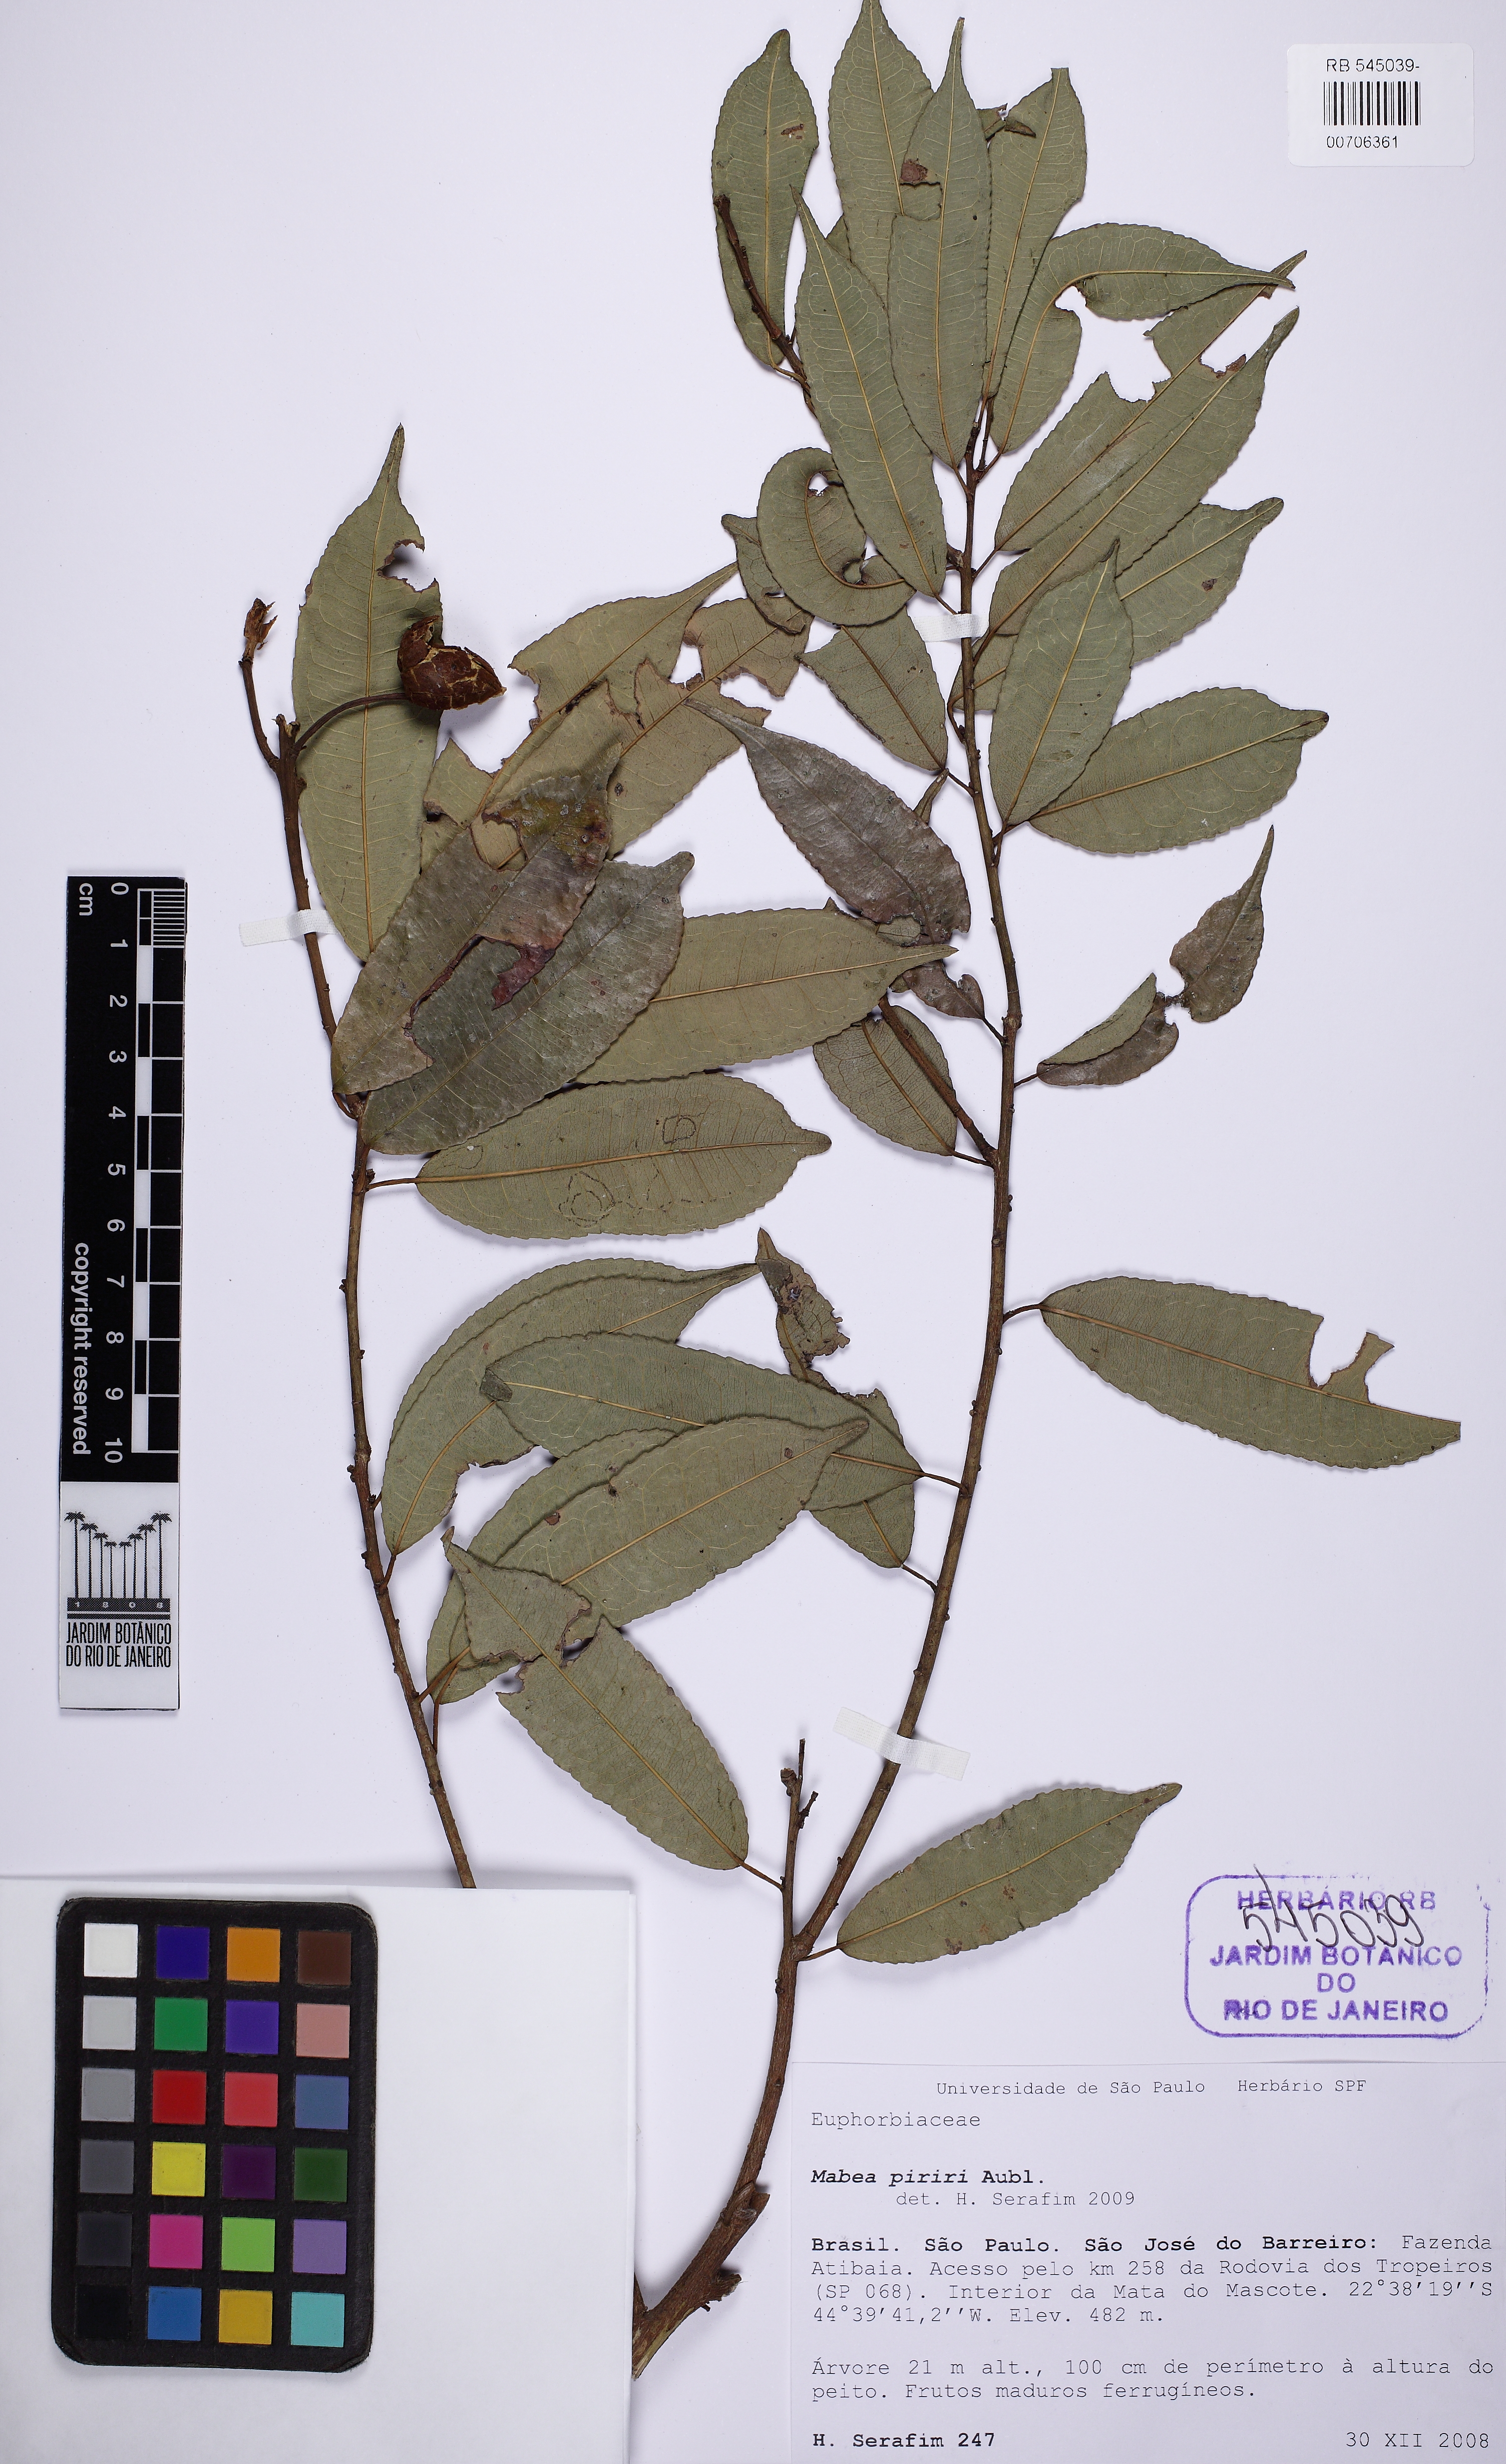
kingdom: Plantae
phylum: Tracheophyta
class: Magnoliopsida
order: Malpighiales
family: Euphorbiaceae
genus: Mabea
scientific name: Mabea piriri
